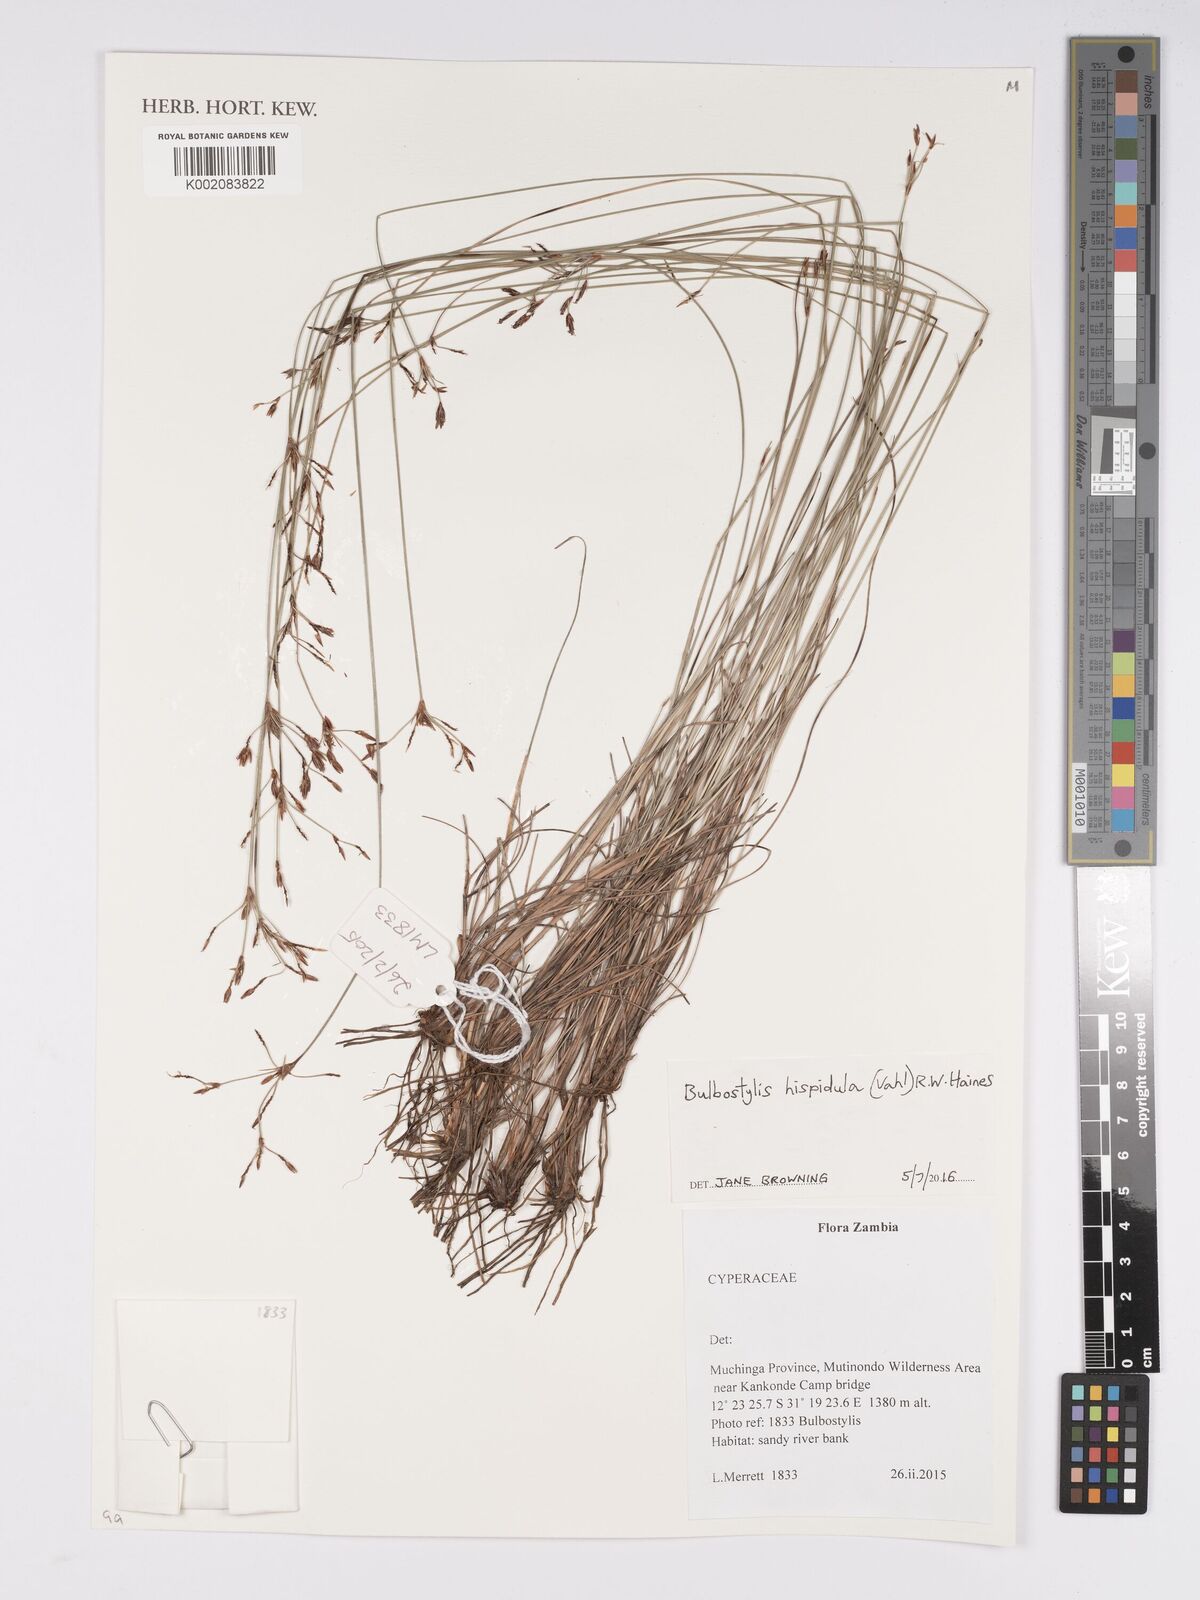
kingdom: Plantae
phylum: Tracheophyta
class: Liliopsida
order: Poales
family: Cyperaceae
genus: Bulbostylis
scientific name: Bulbostylis hispidula
